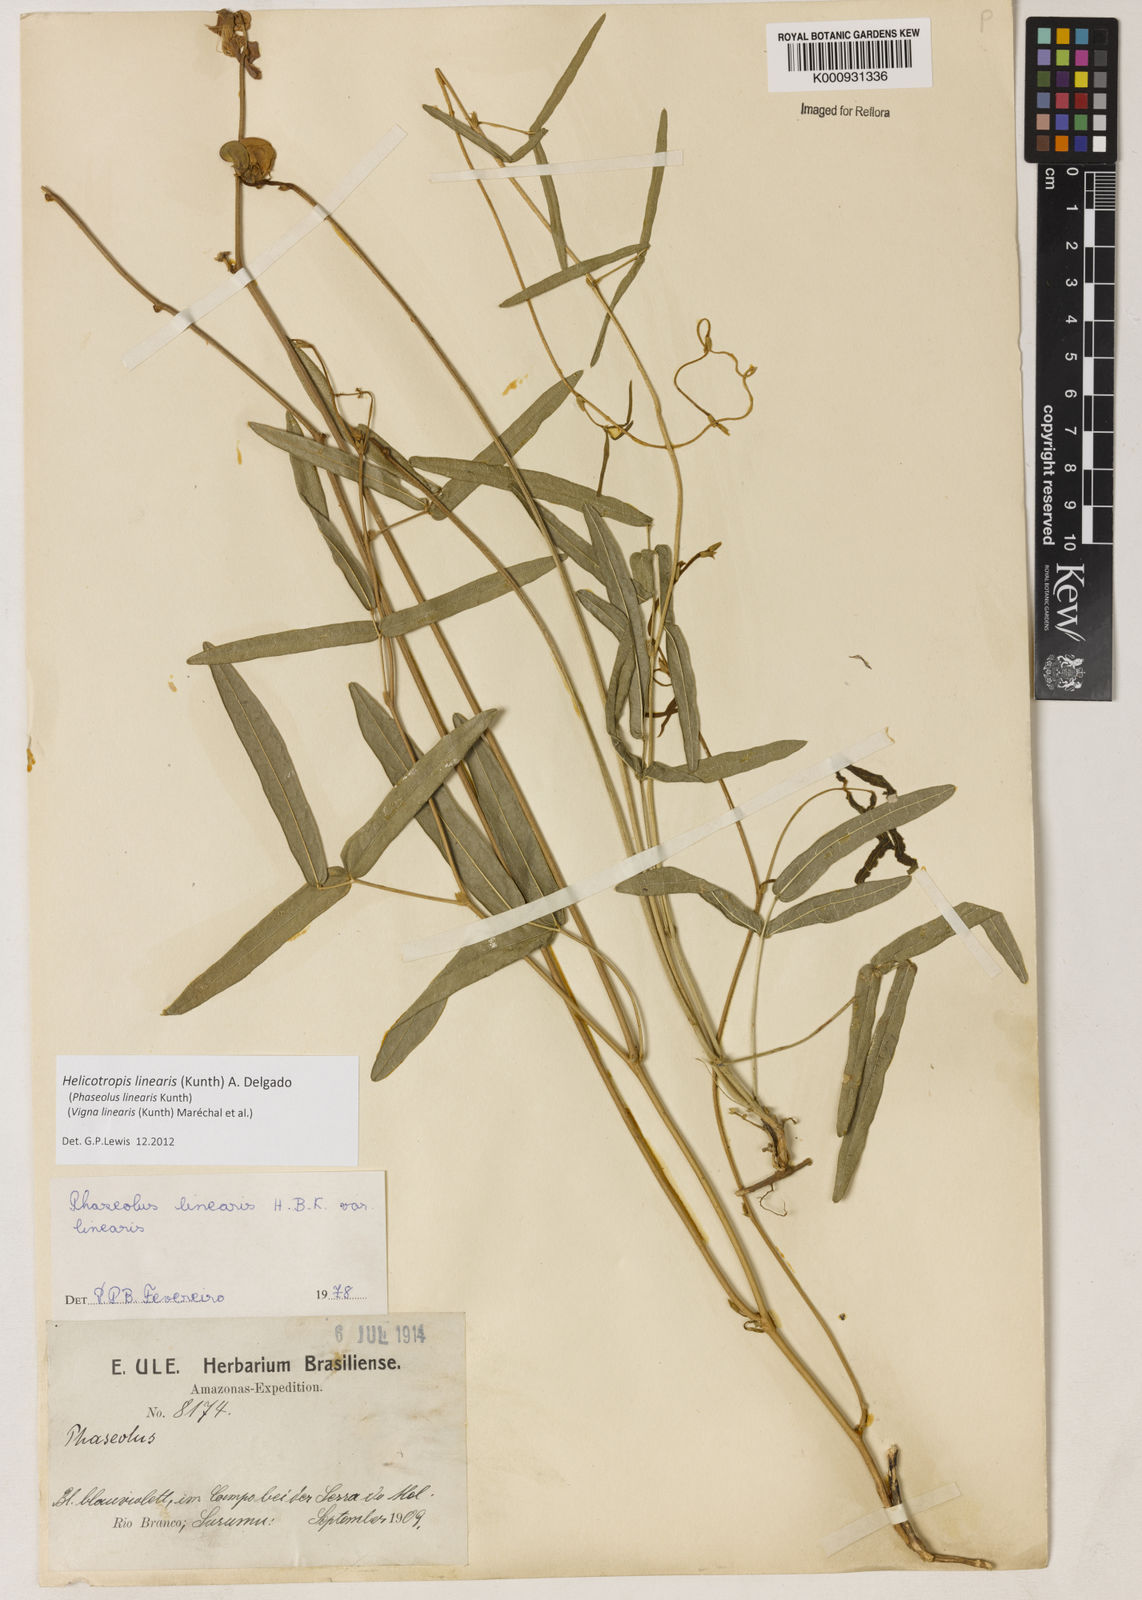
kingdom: Plantae
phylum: Tracheophyta
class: Magnoliopsida
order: Fabales
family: Fabaceae
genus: Helicotropis
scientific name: Helicotropis linearis
